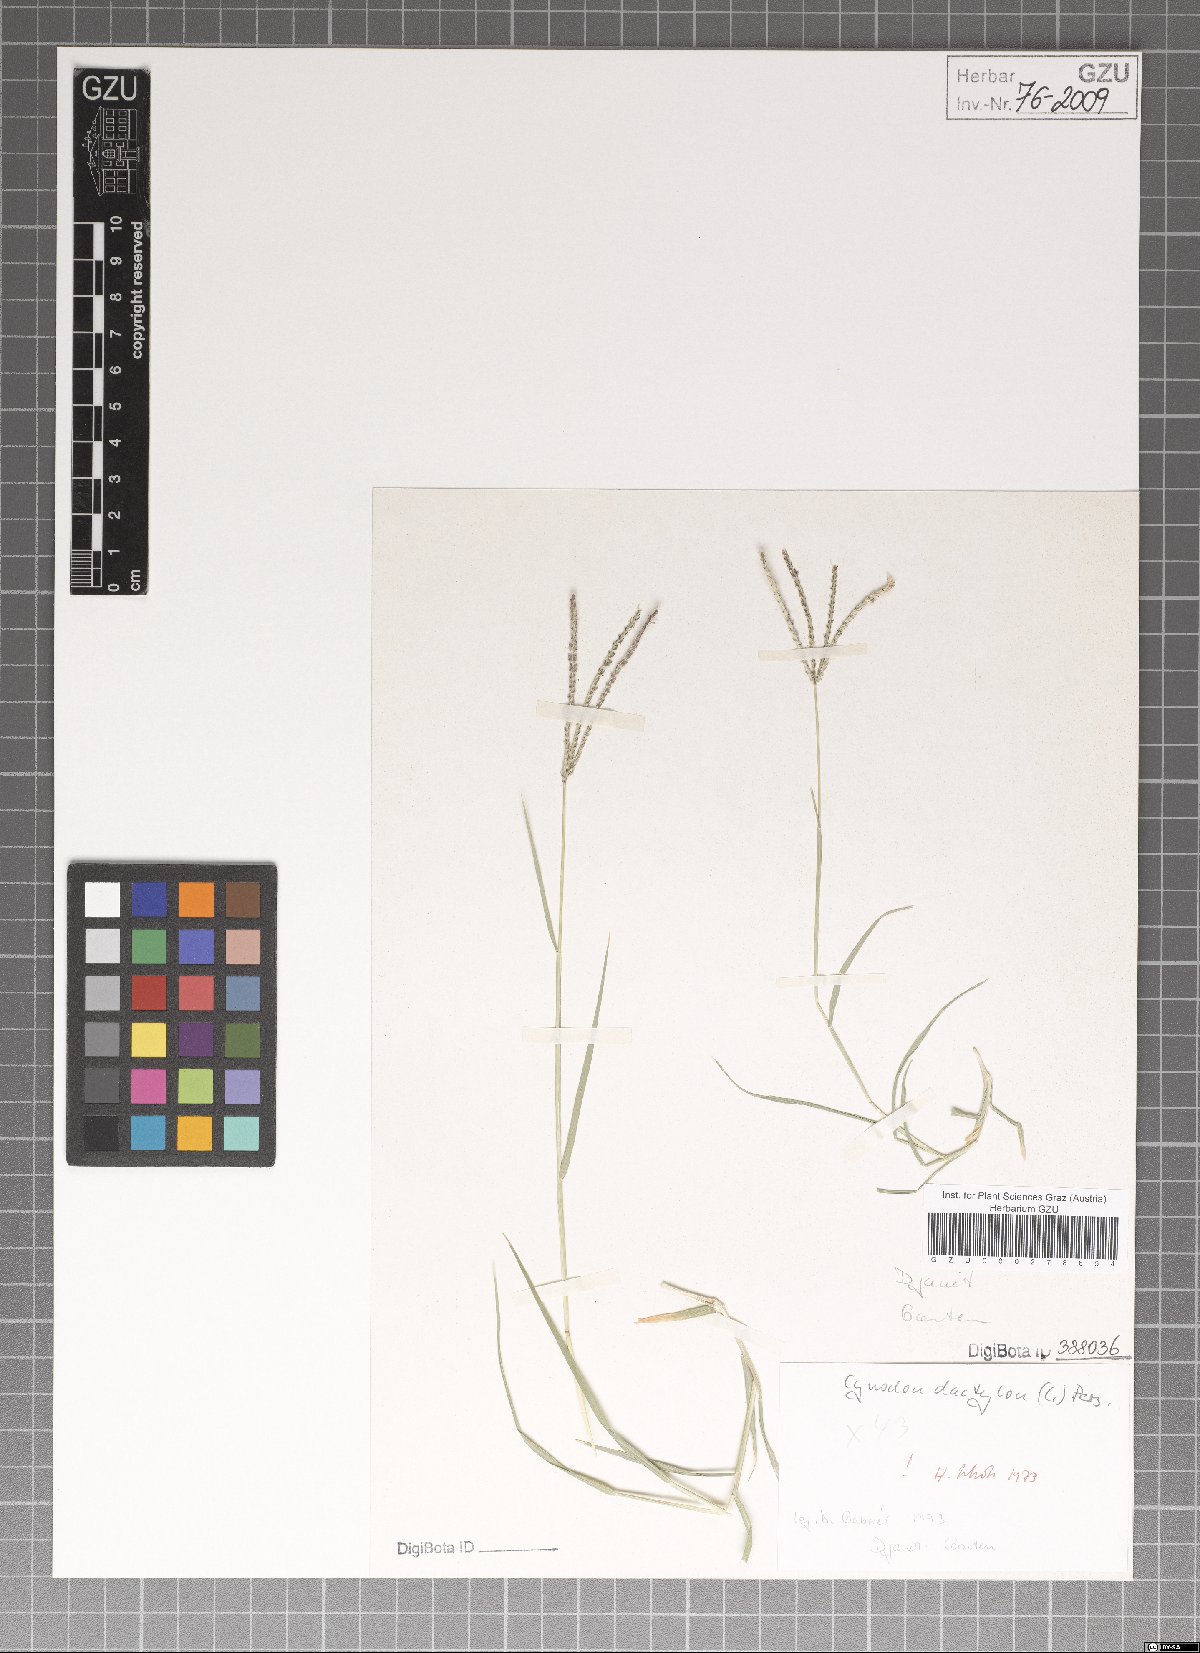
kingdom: Plantae
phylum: Tracheophyta
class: Liliopsida
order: Poales
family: Poaceae
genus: Cynodon
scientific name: Cynodon dactylon
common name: Bermuda grass
